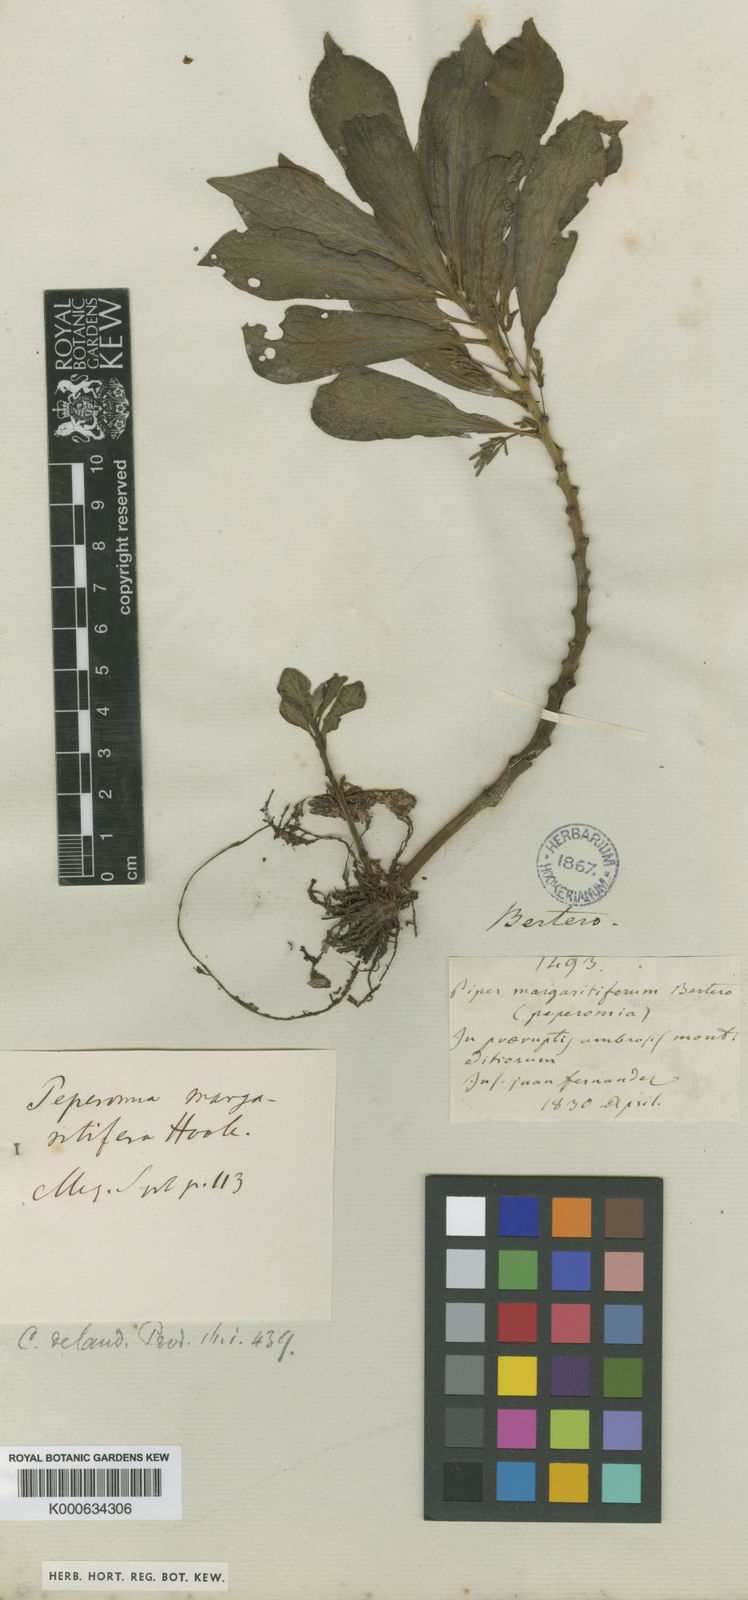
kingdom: Plantae
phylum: Tracheophyta
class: Magnoliopsida
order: Piperales
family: Piperaceae
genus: Peperomia
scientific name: Peperomia margaritifera
